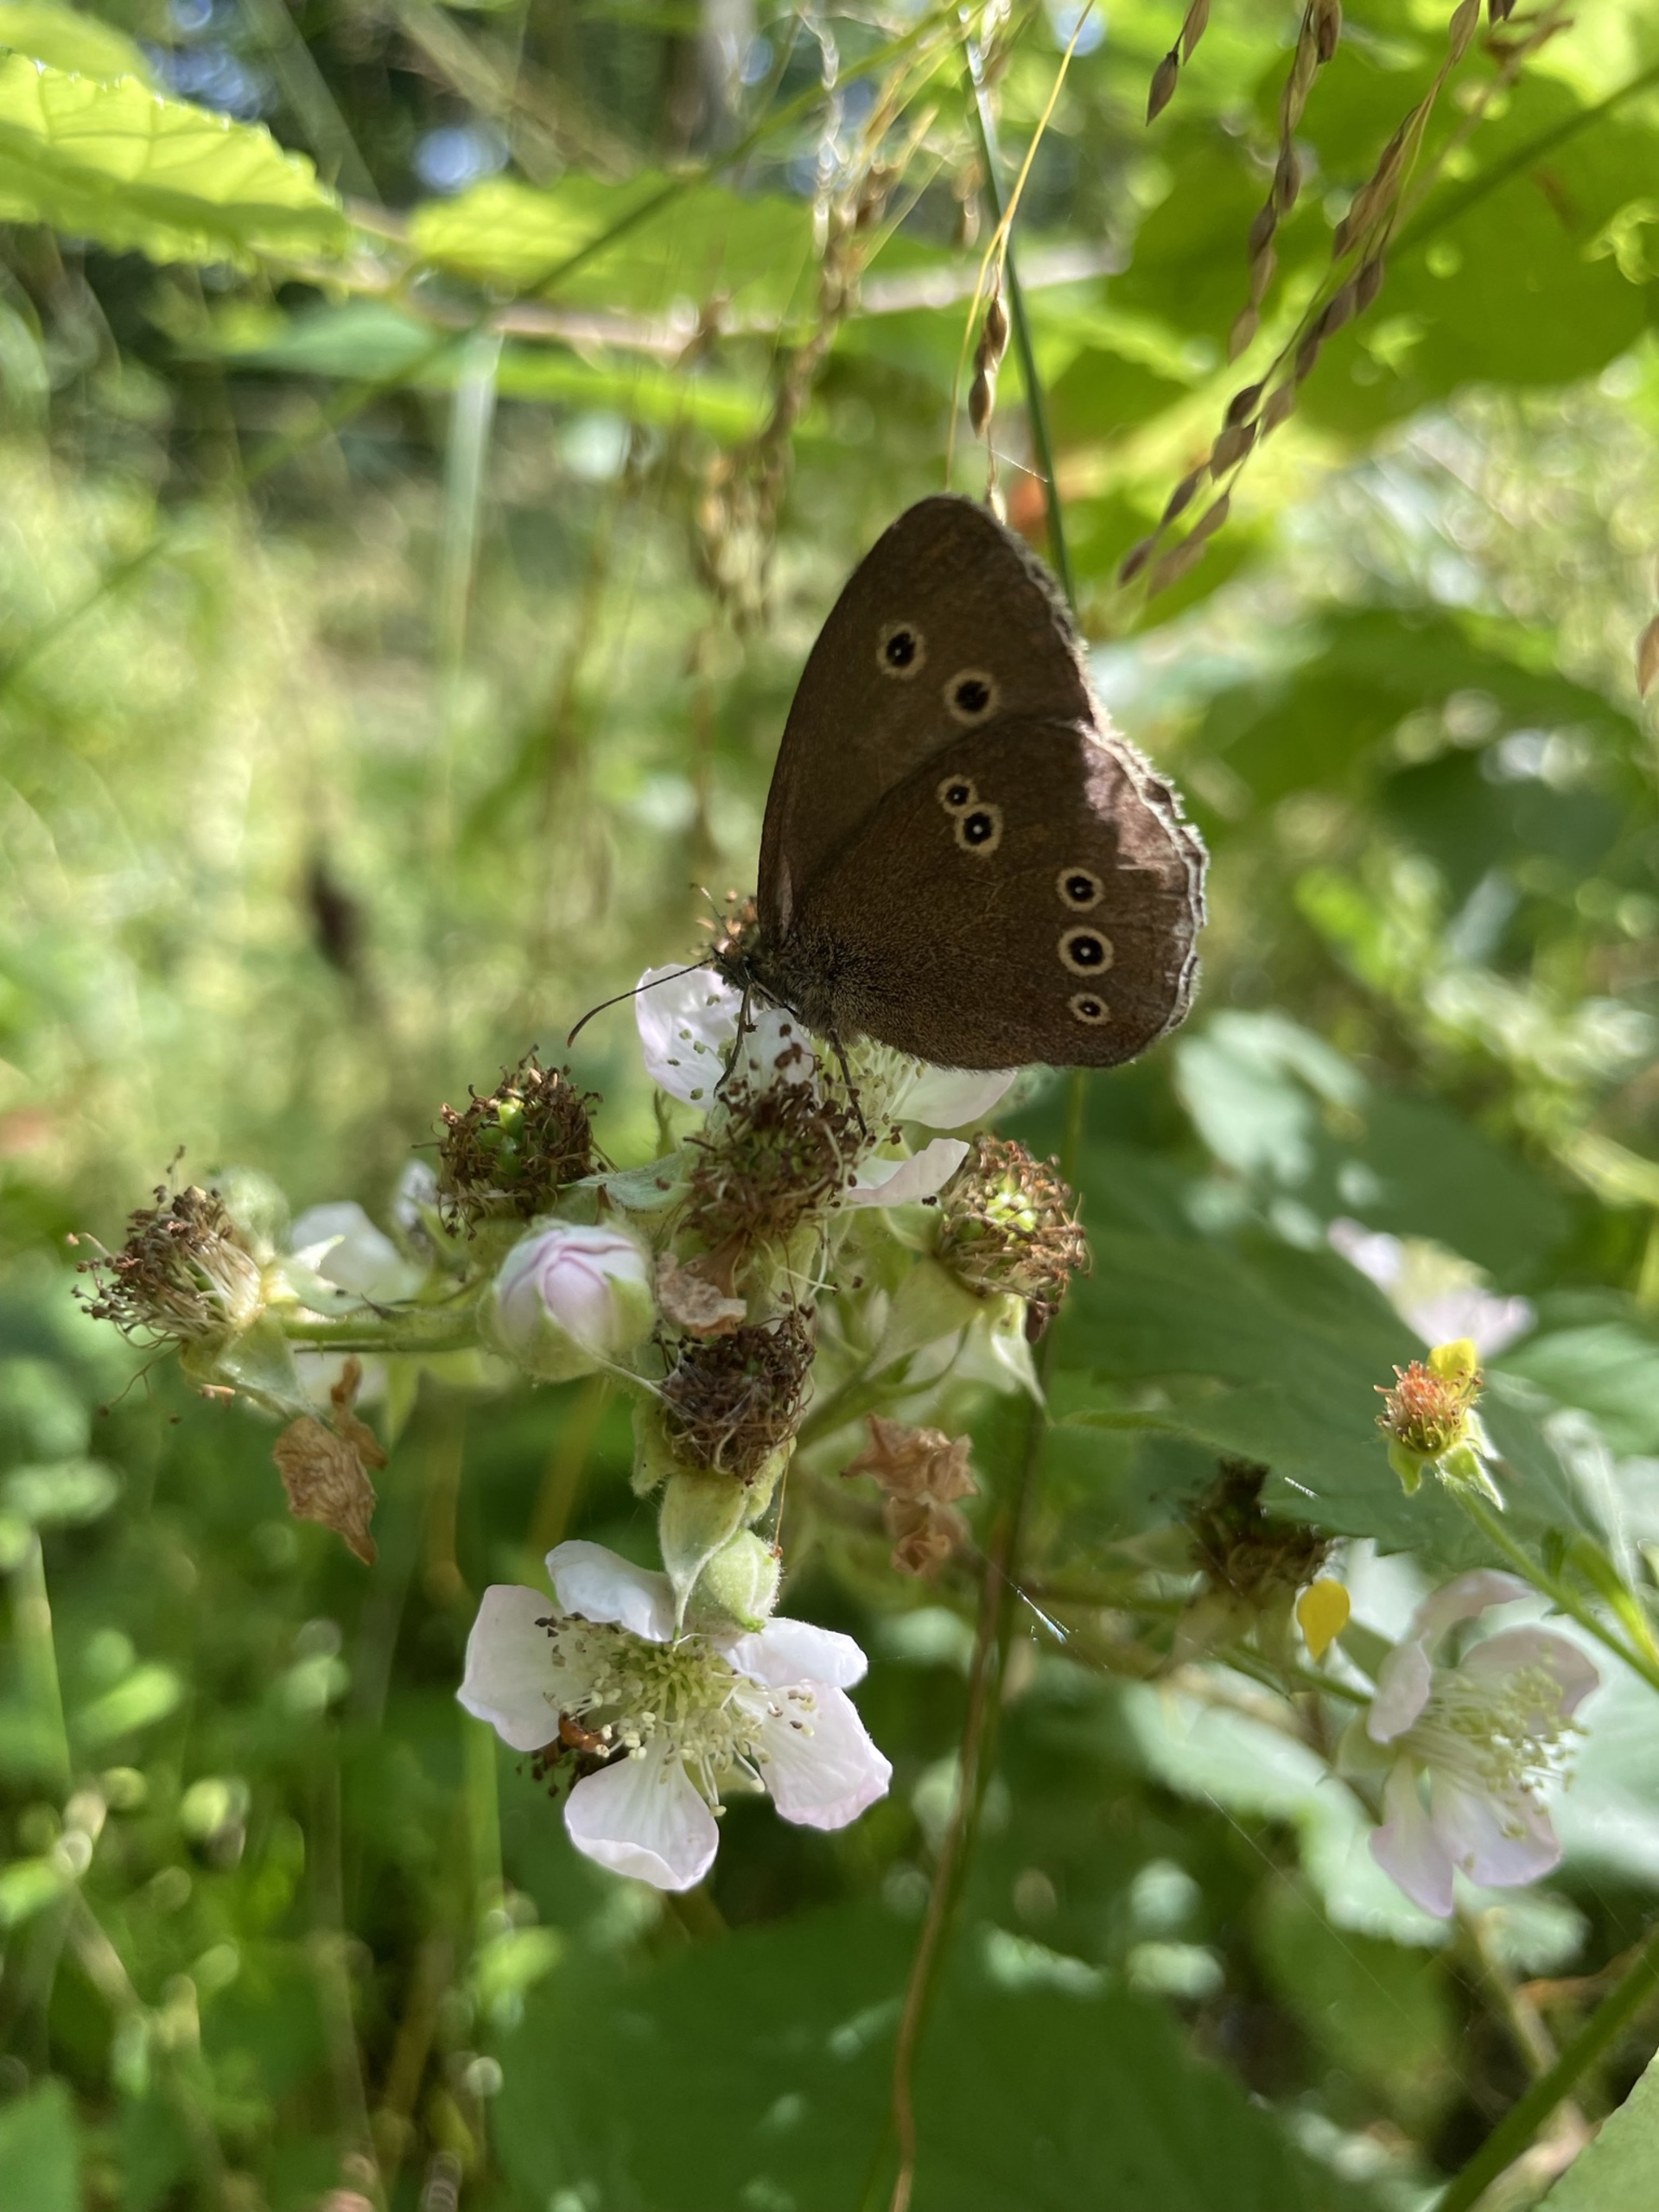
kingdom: Animalia
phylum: Arthropoda
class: Insecta
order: Lepidoptera
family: Nymphalidae
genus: Aphantopus
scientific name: Aphantopus hyperantus
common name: Engrandøje
